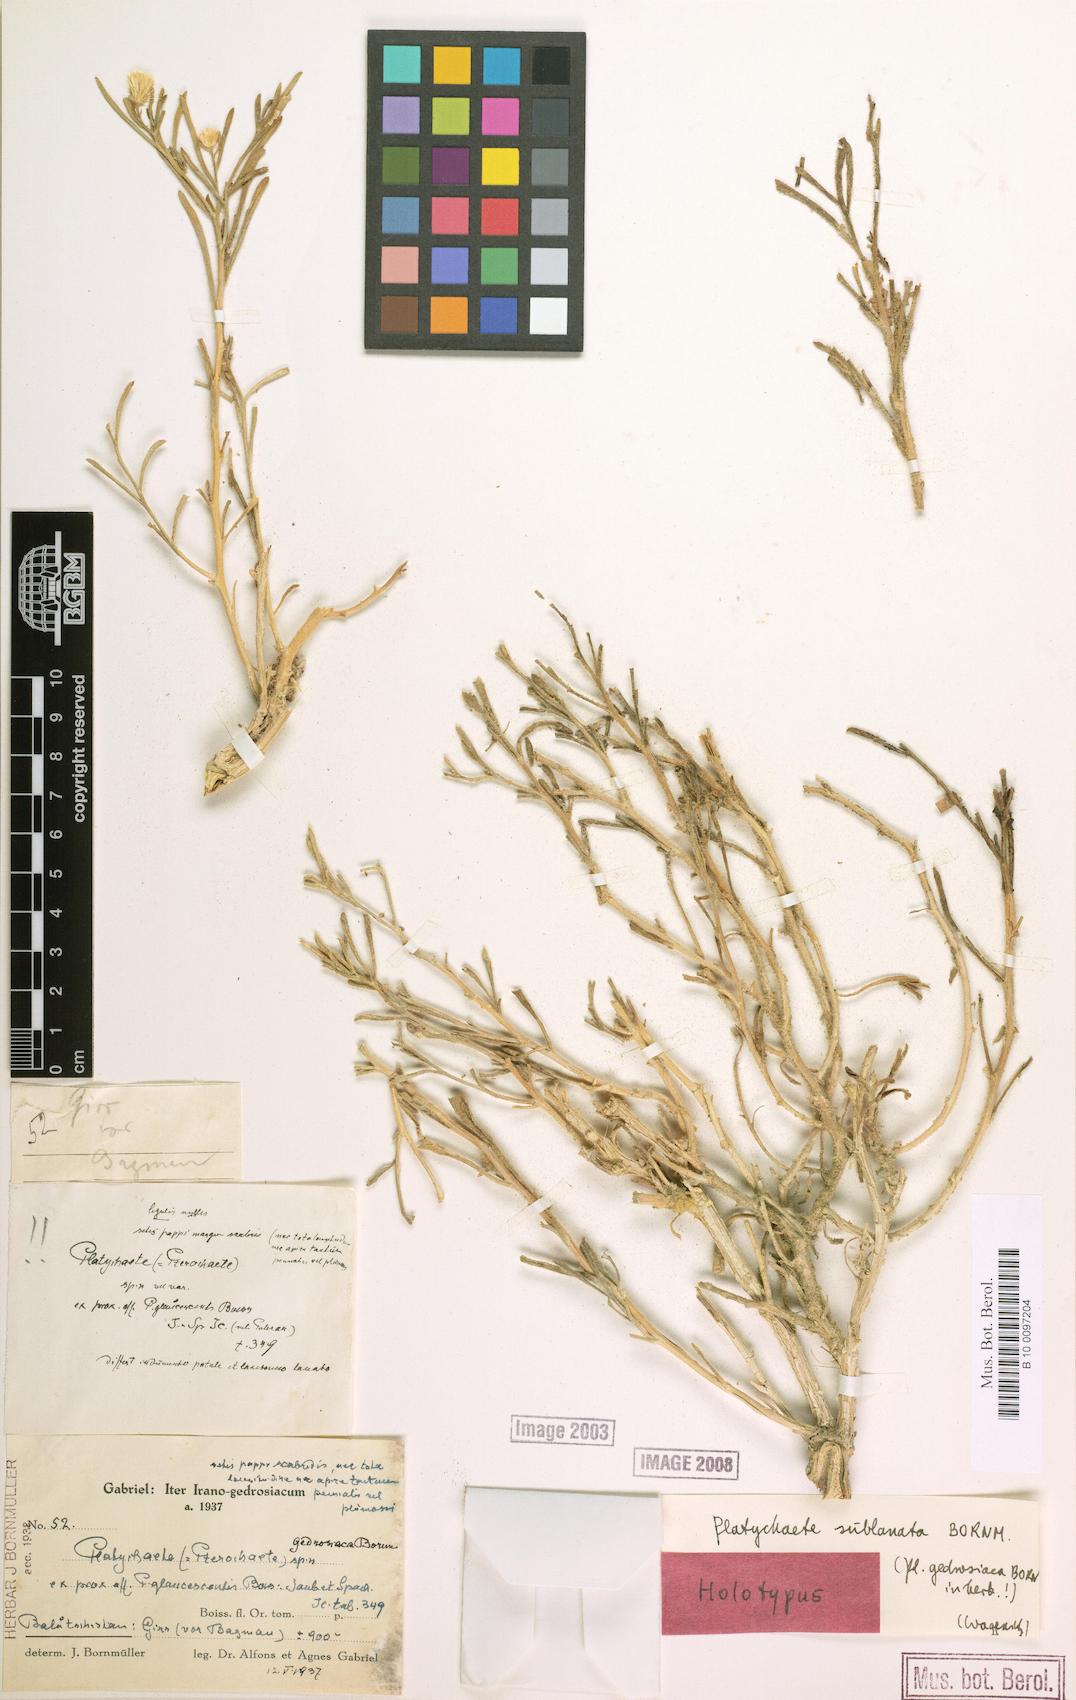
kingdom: Plantae
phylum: Tracheophyta
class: Magnoliopsida
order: Asterales
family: Asteraceae
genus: Pulicaria
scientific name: Pulicaria glaucescens
